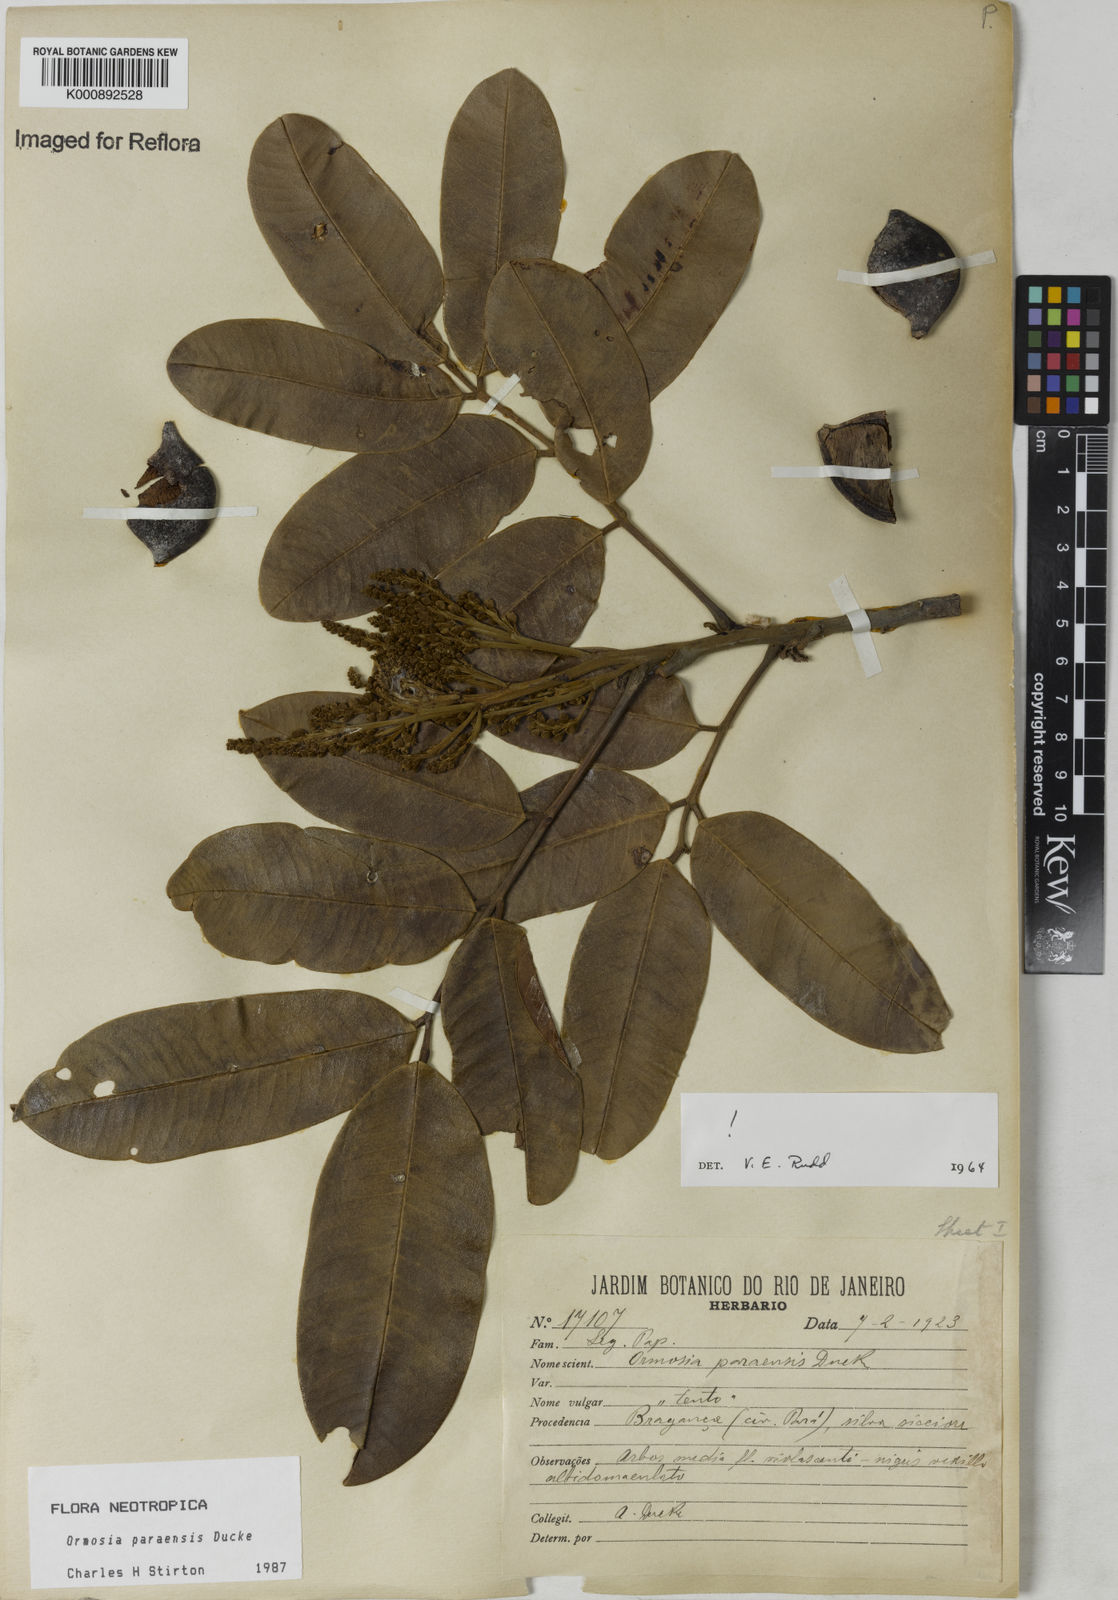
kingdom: Plantae
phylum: Tracheophyta
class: Magnoliopsida
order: Fabales
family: Fabaceae
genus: Ormosia
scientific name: Ormosia paraensis
